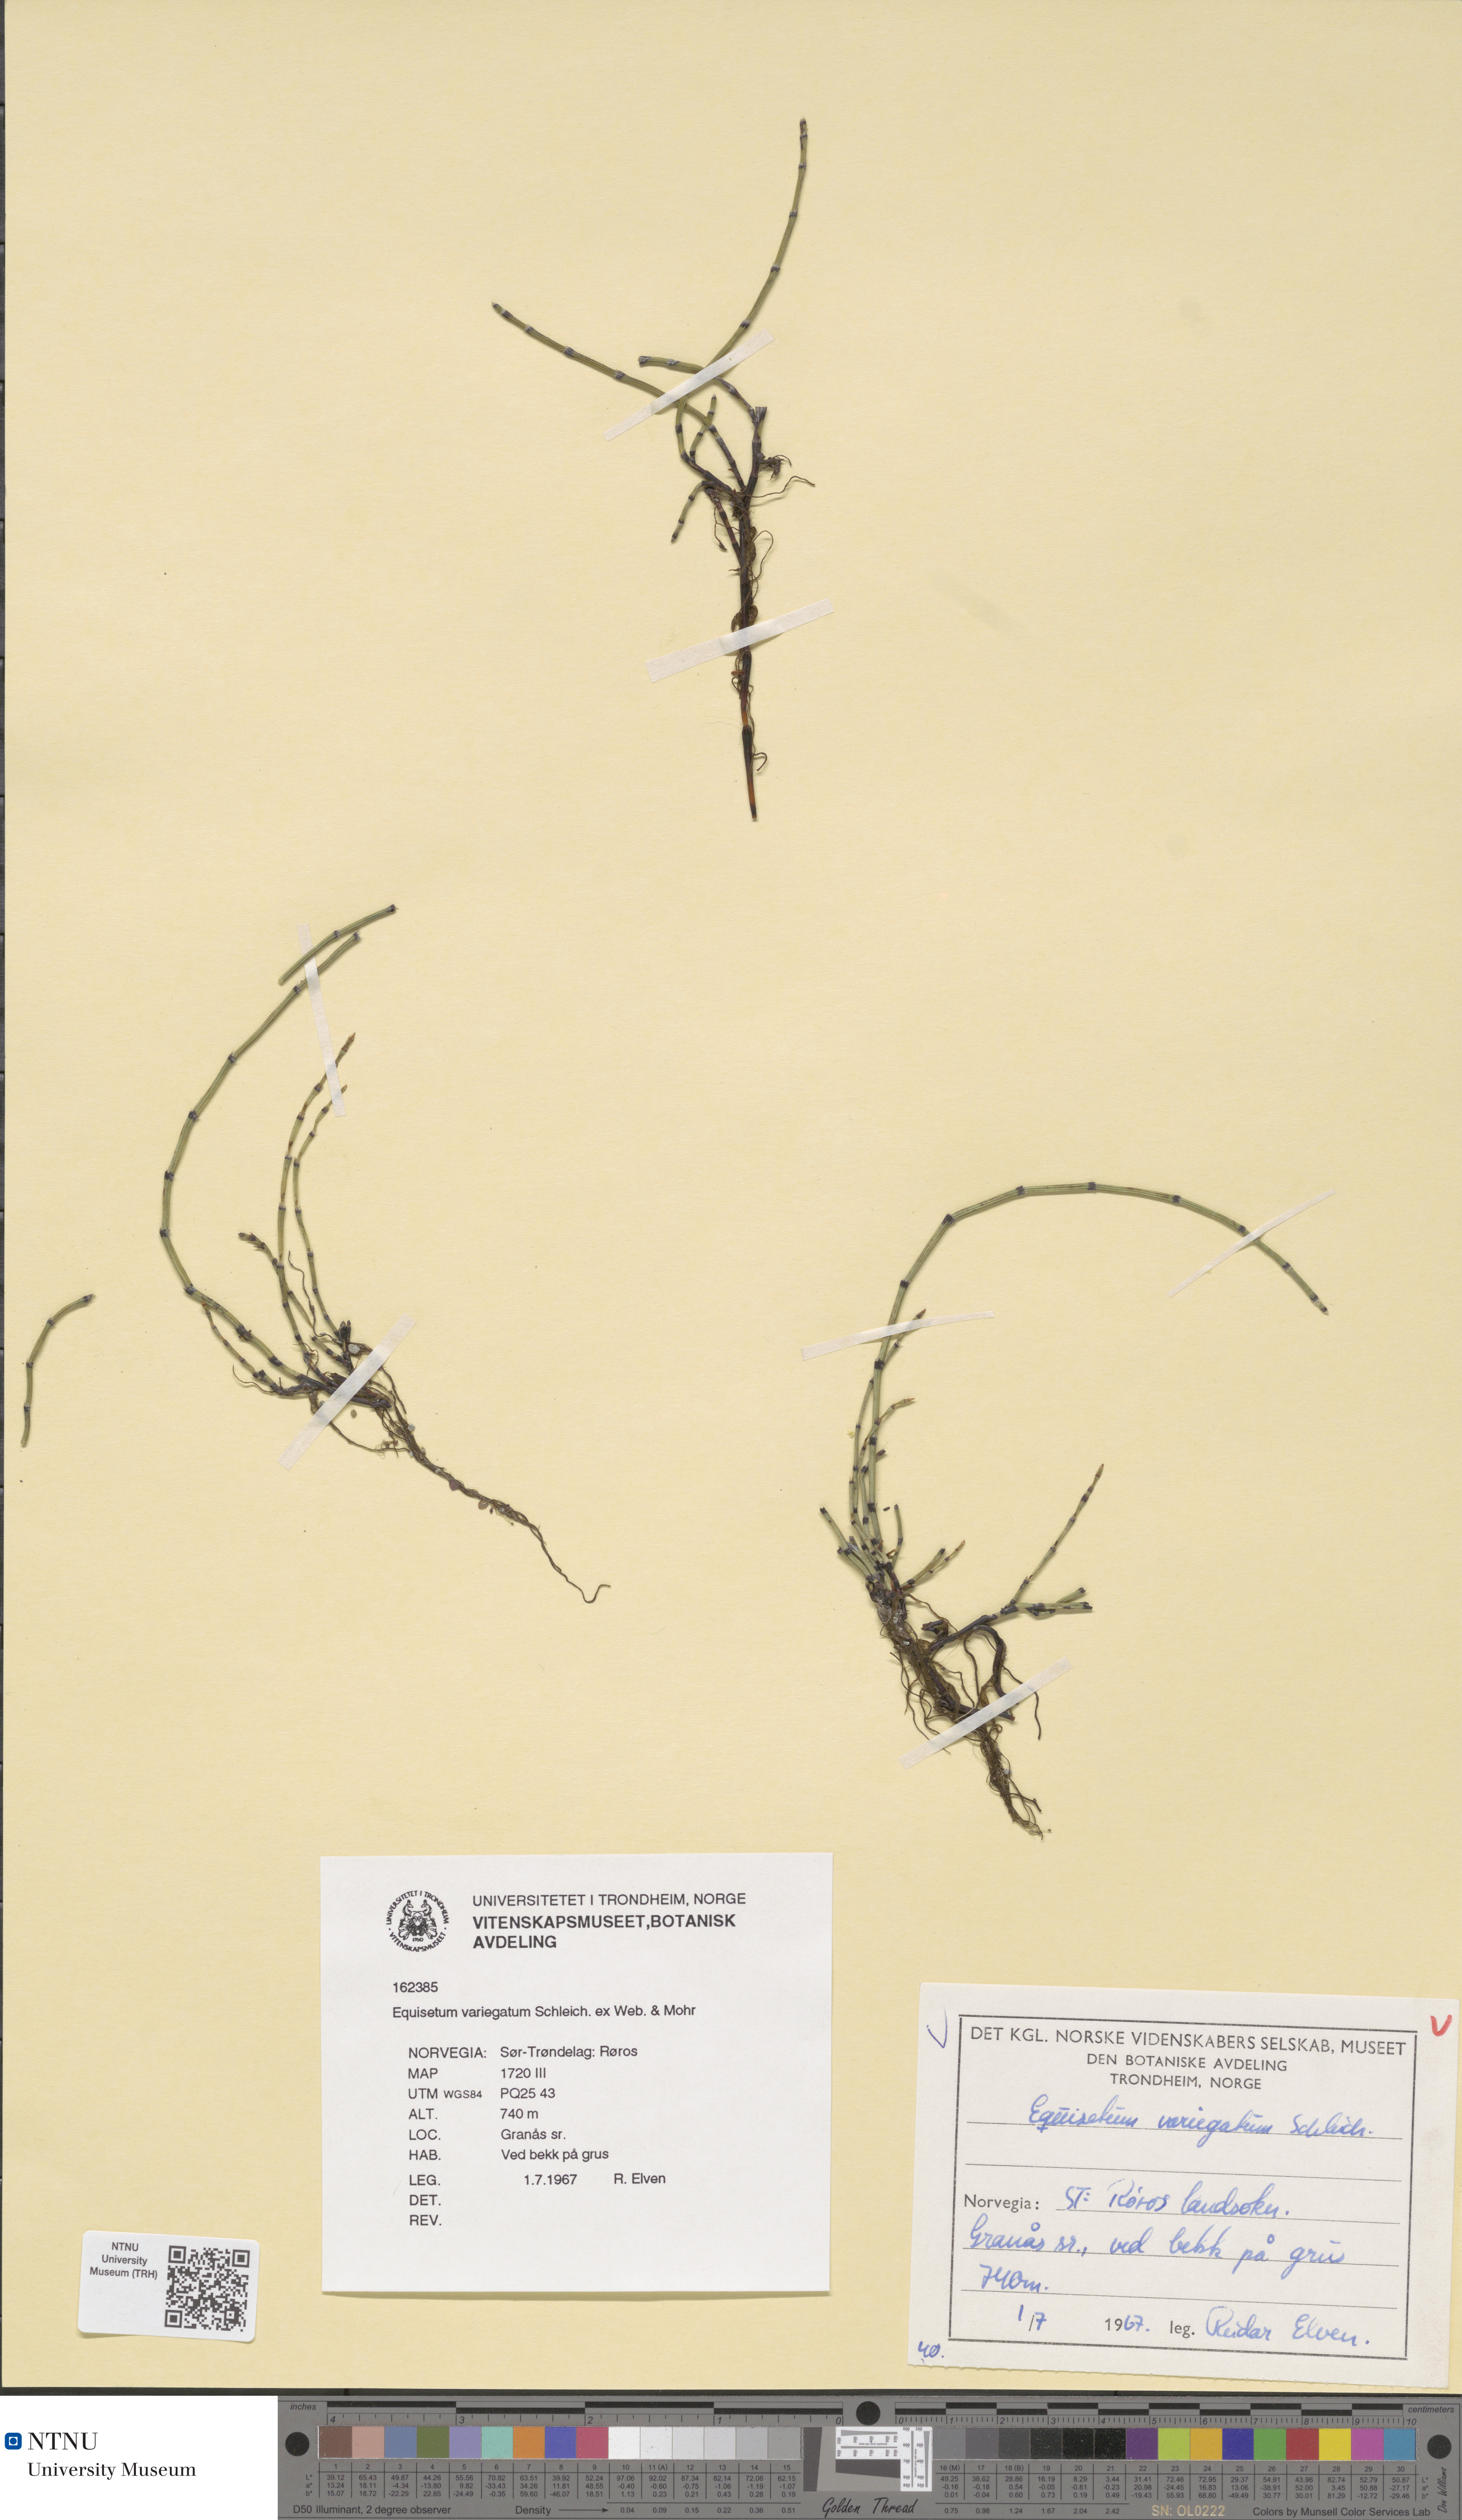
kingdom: Plantae
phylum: Tracheophyta
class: Polypodiopsida
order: Equisetales
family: Equisetaceae
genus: Equisetum
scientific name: Equisetum variegatum
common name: Variegated horsetail
